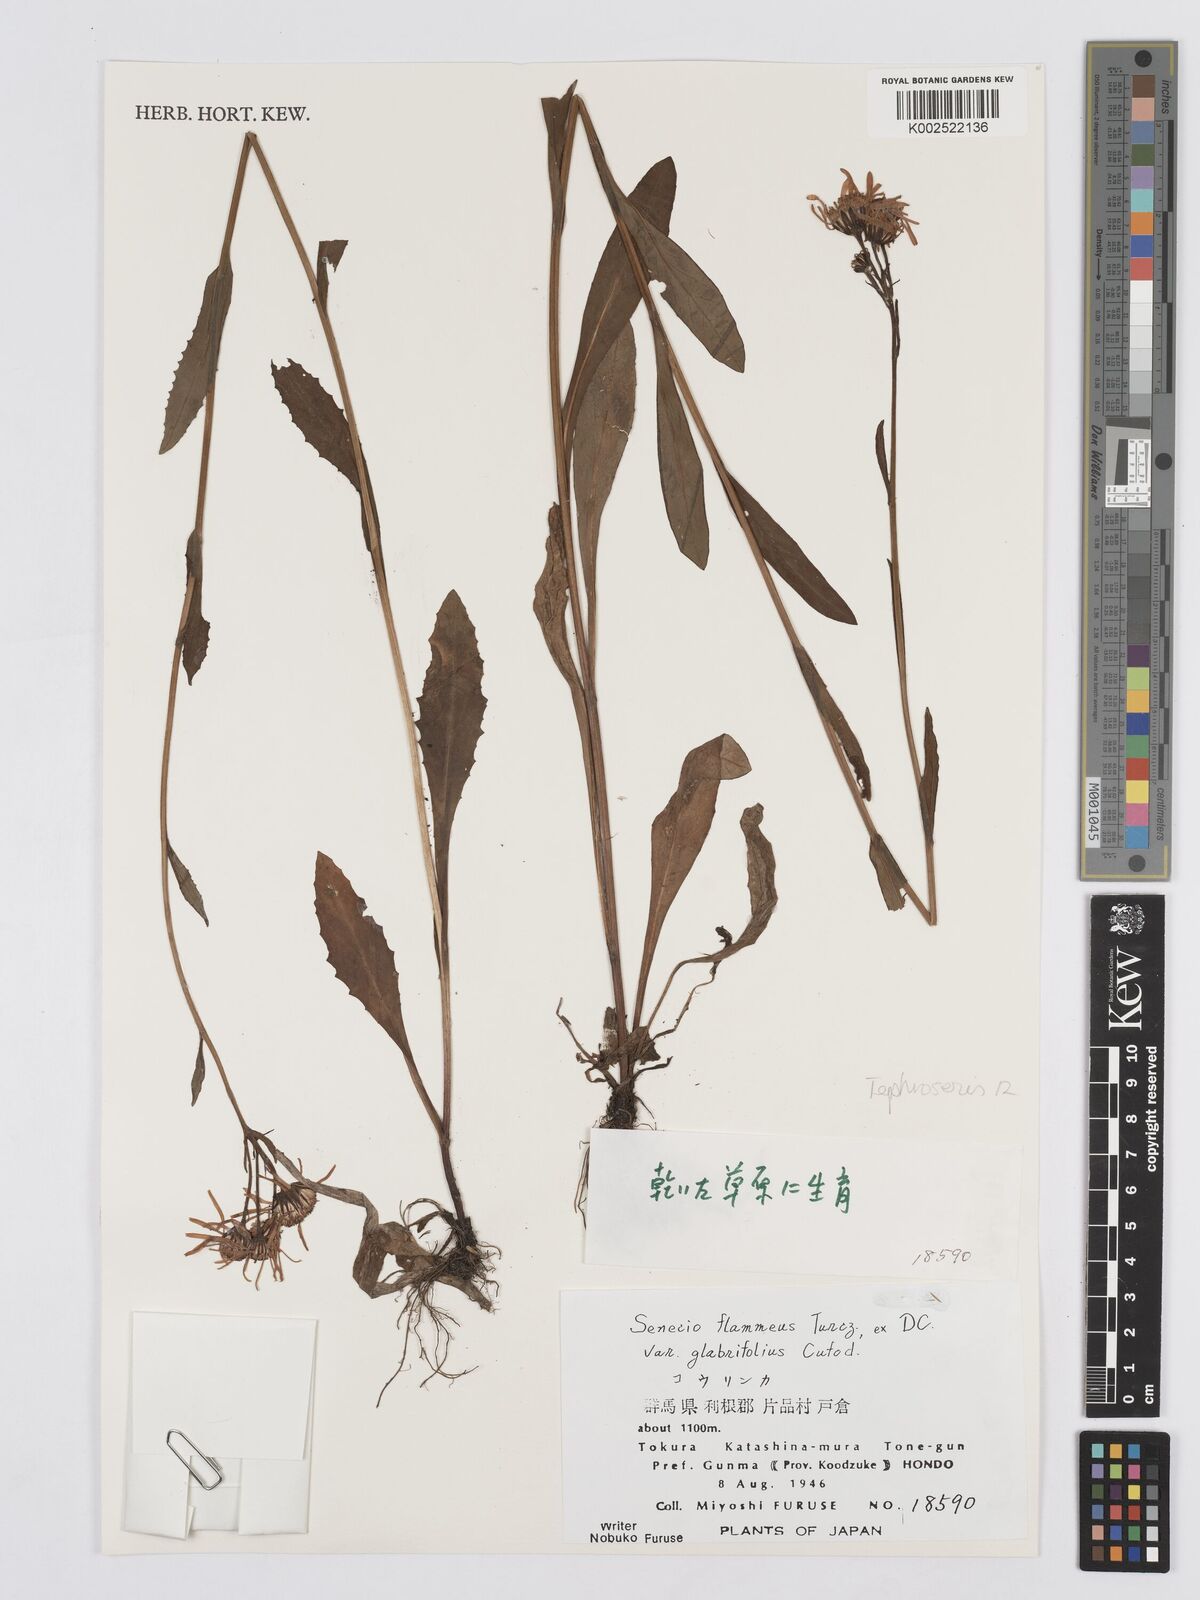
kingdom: Plantae
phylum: Tracheophyta
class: Magnoliopsida
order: Asterales
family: Asteraceae
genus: Tephroseris
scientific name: Tephroseris flammea
